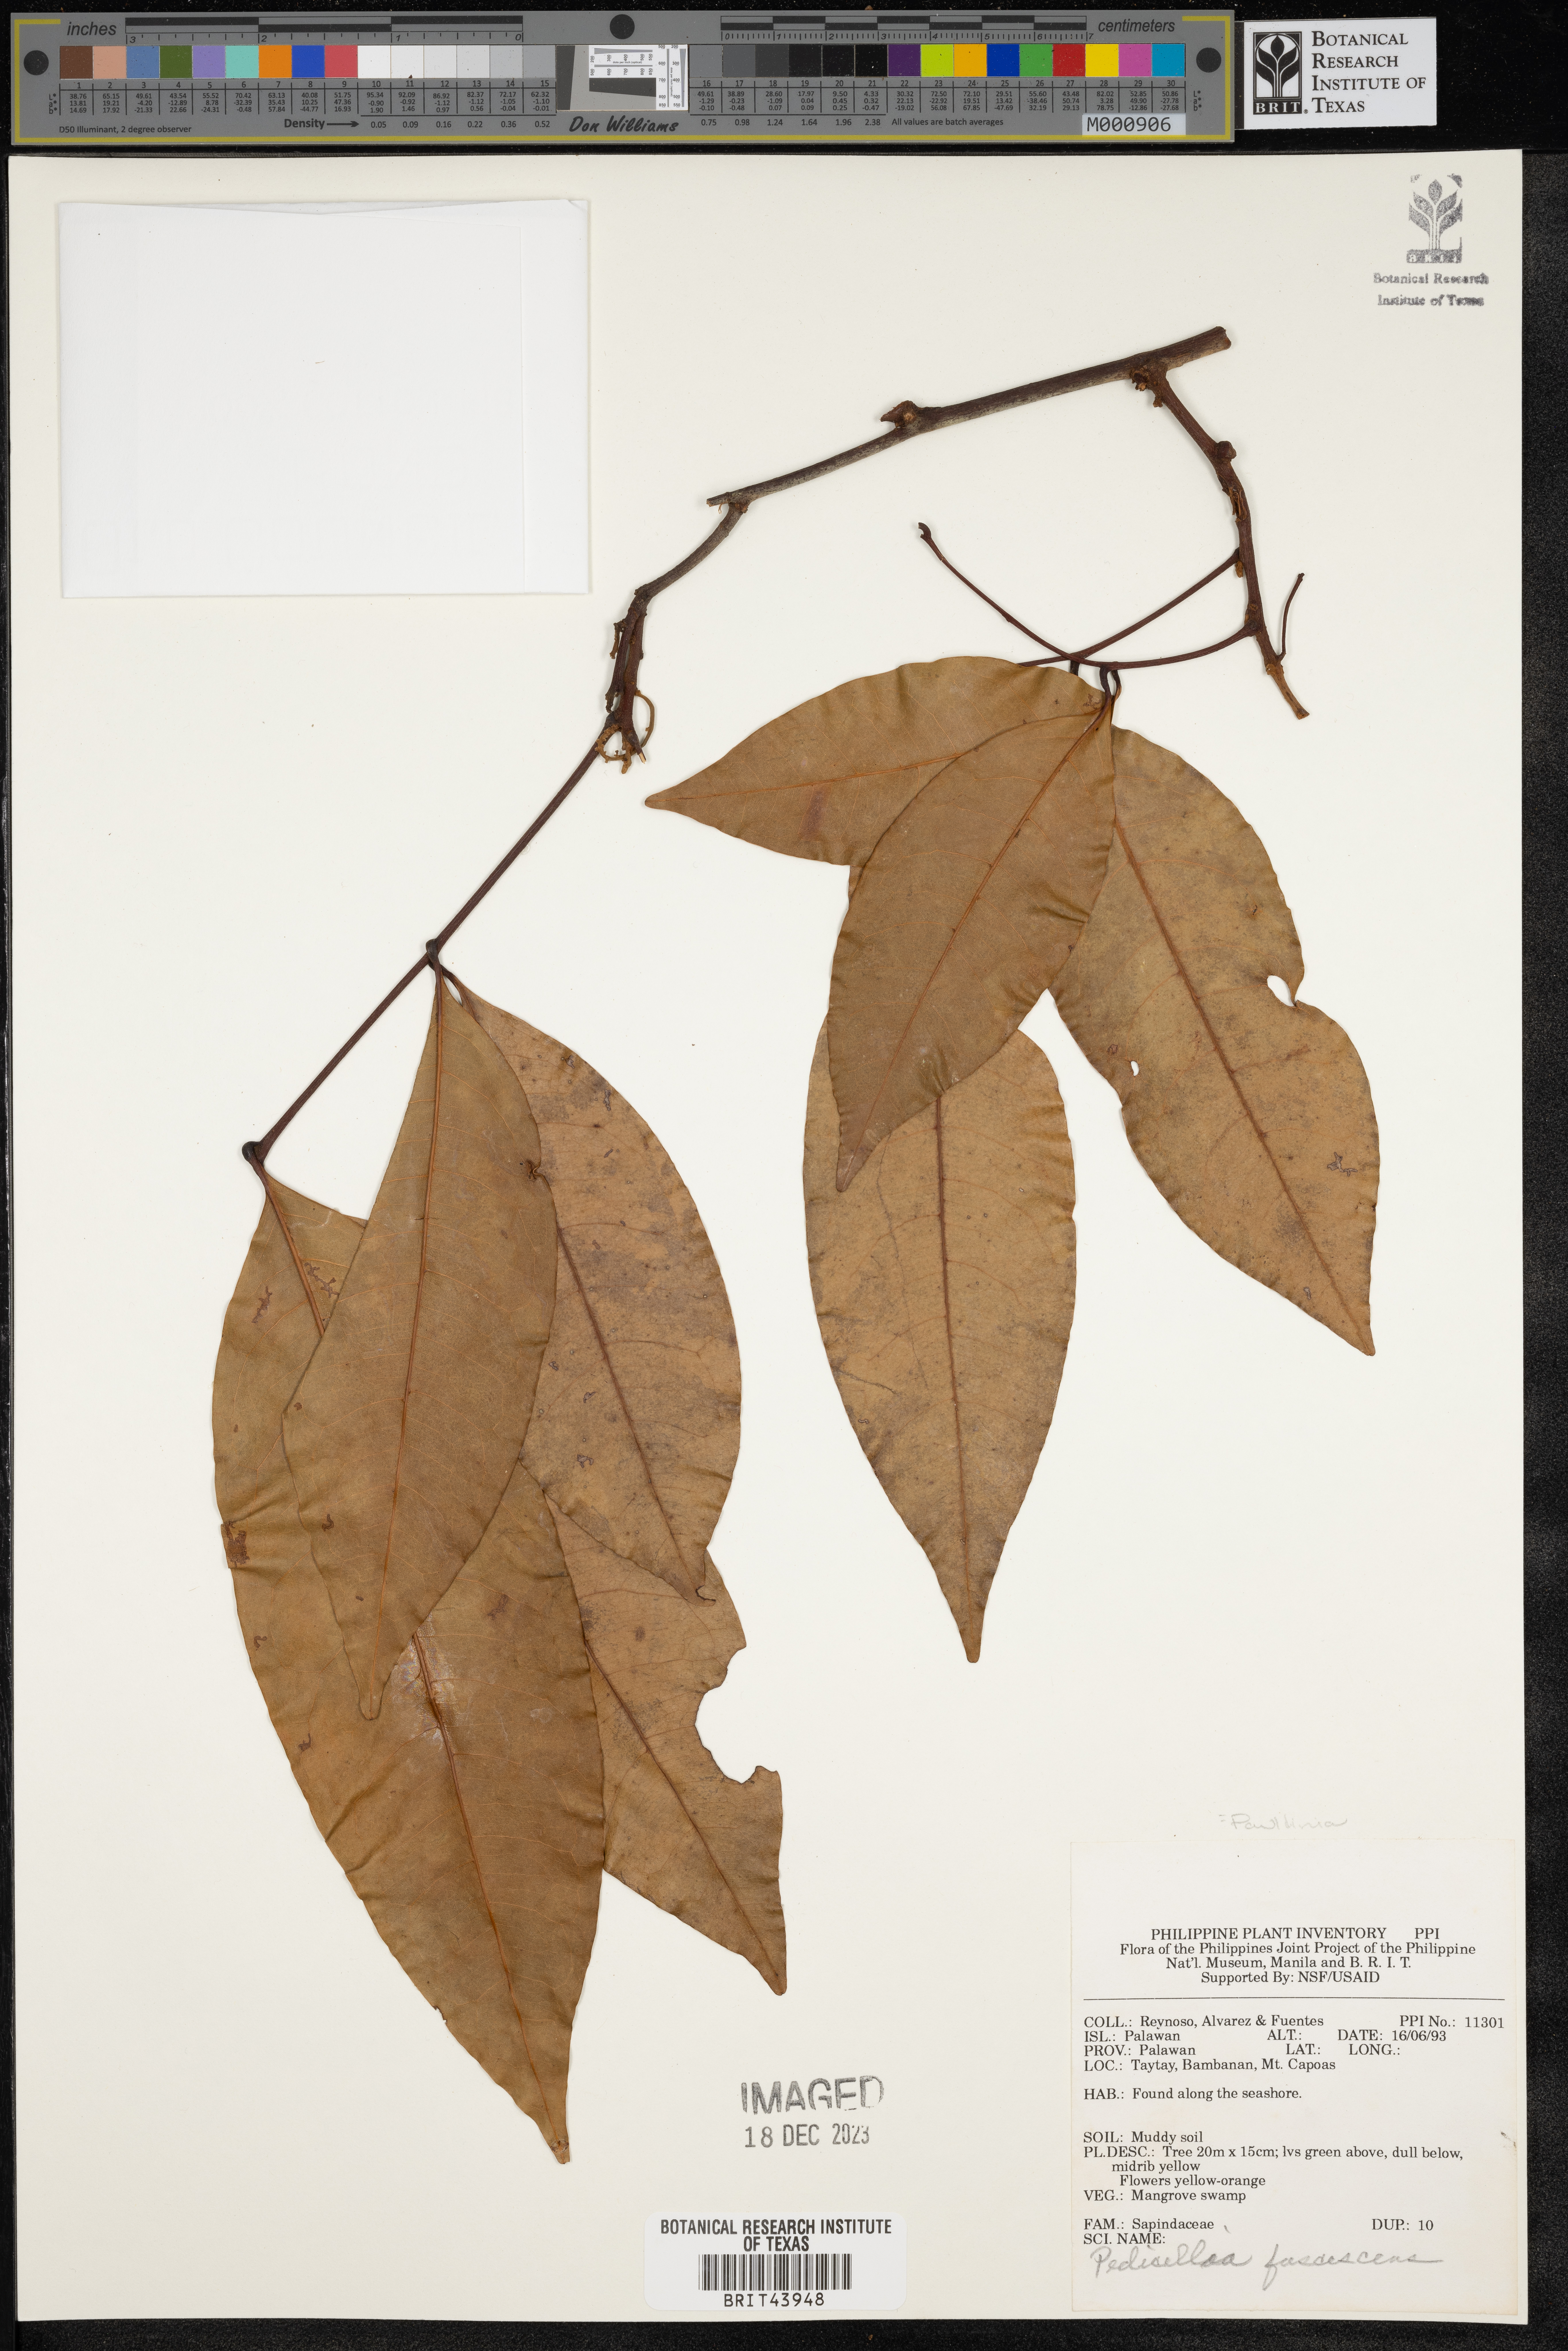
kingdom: Plantae
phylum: Tracheophyta
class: Magnoliopsida
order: Sapindales
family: Sapindaceae
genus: Paullinia
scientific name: Paullinia fuscescens
